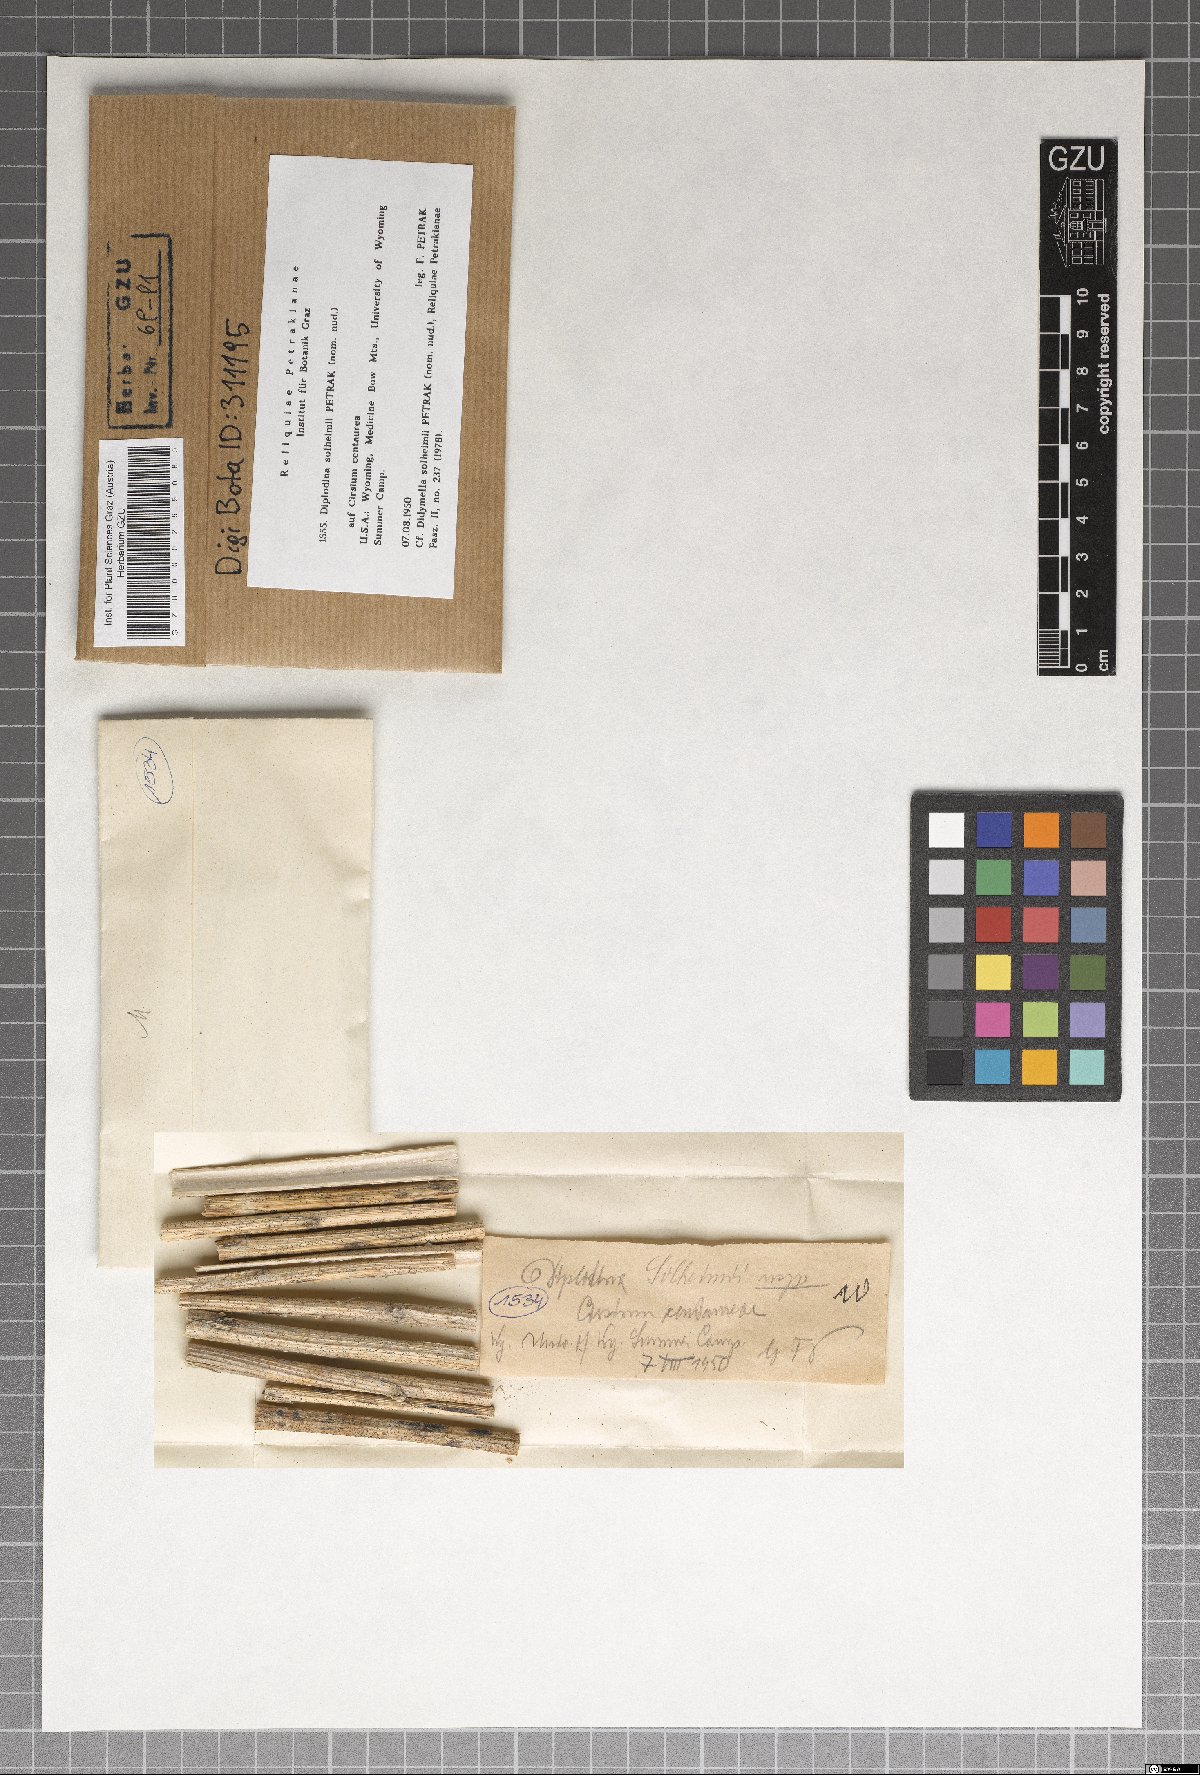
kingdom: Fungi
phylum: Ascomycota
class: Sordariomycetes
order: Diaporthales
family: Gnomoniaceae
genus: Diplodina
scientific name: Diplodina
